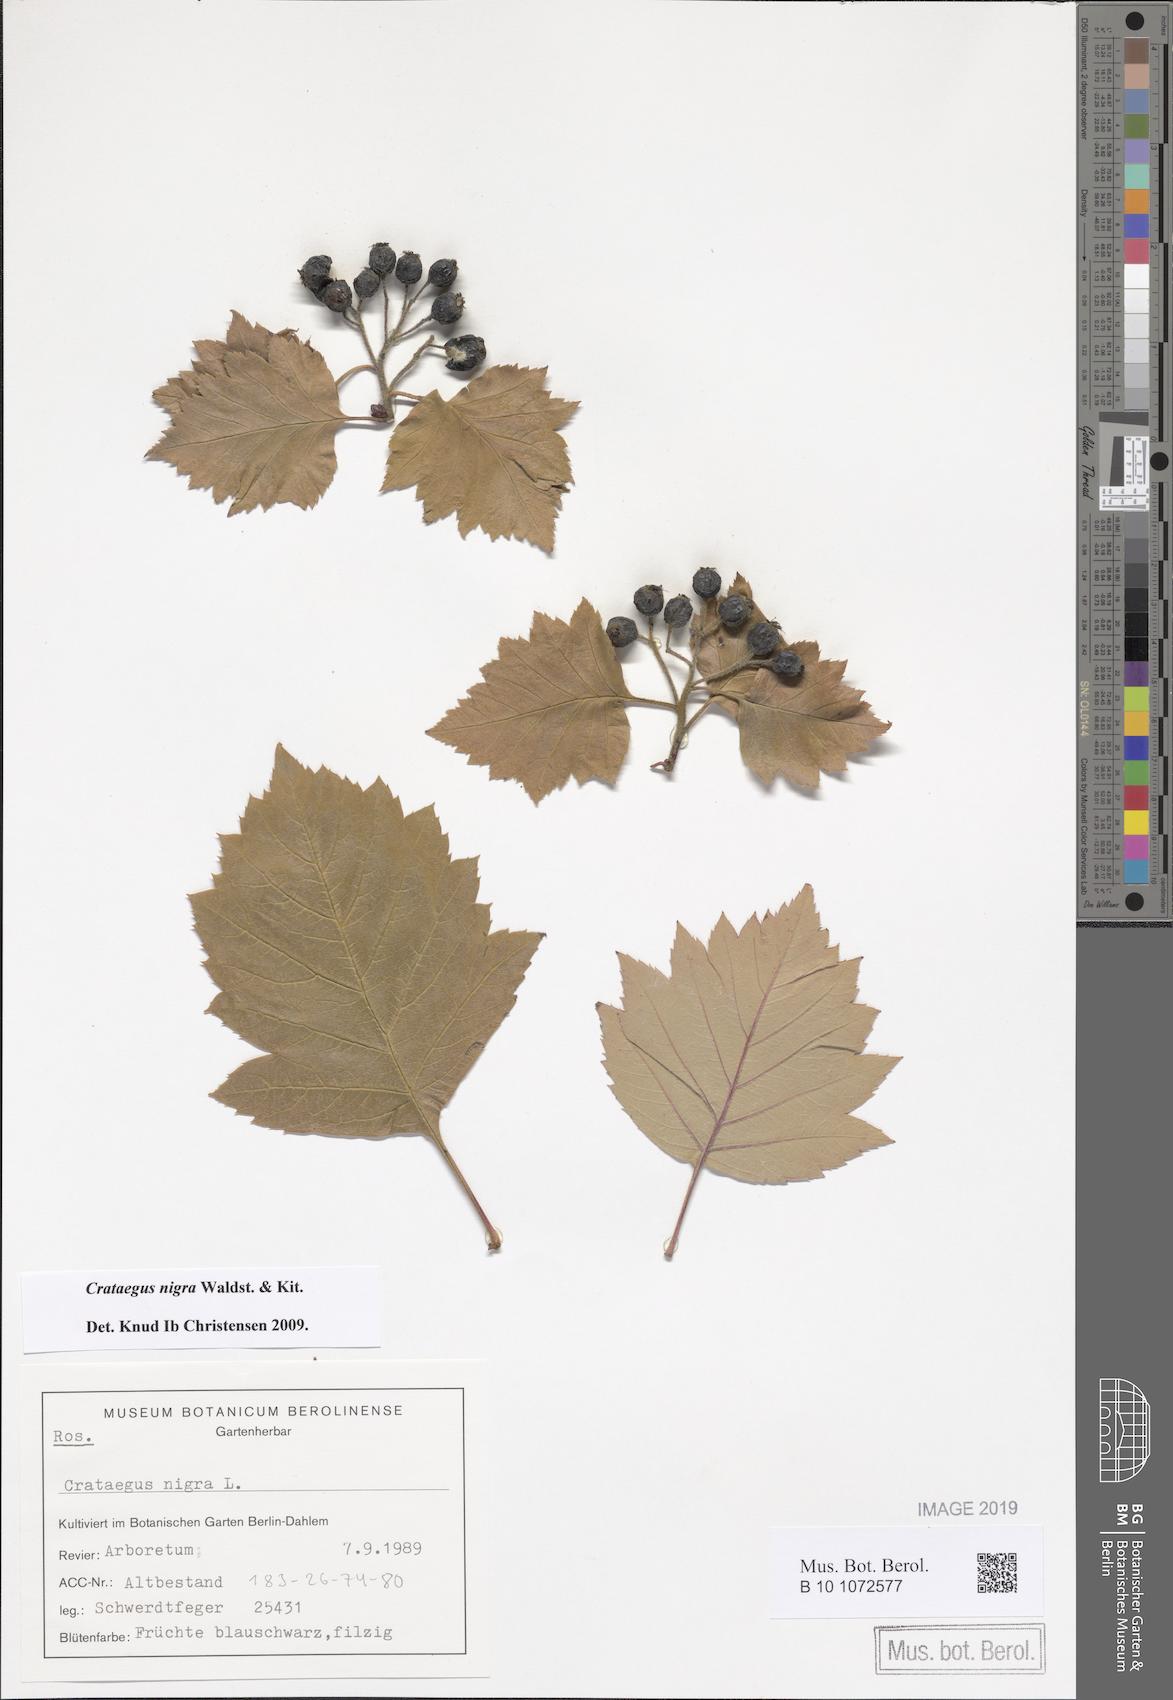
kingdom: Plantae
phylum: Tracheophyta
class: Magnoliopsida
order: Rosales
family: Rosaceae
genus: Crataegus
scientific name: Crataegus nigra
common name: Hungarian thorn
